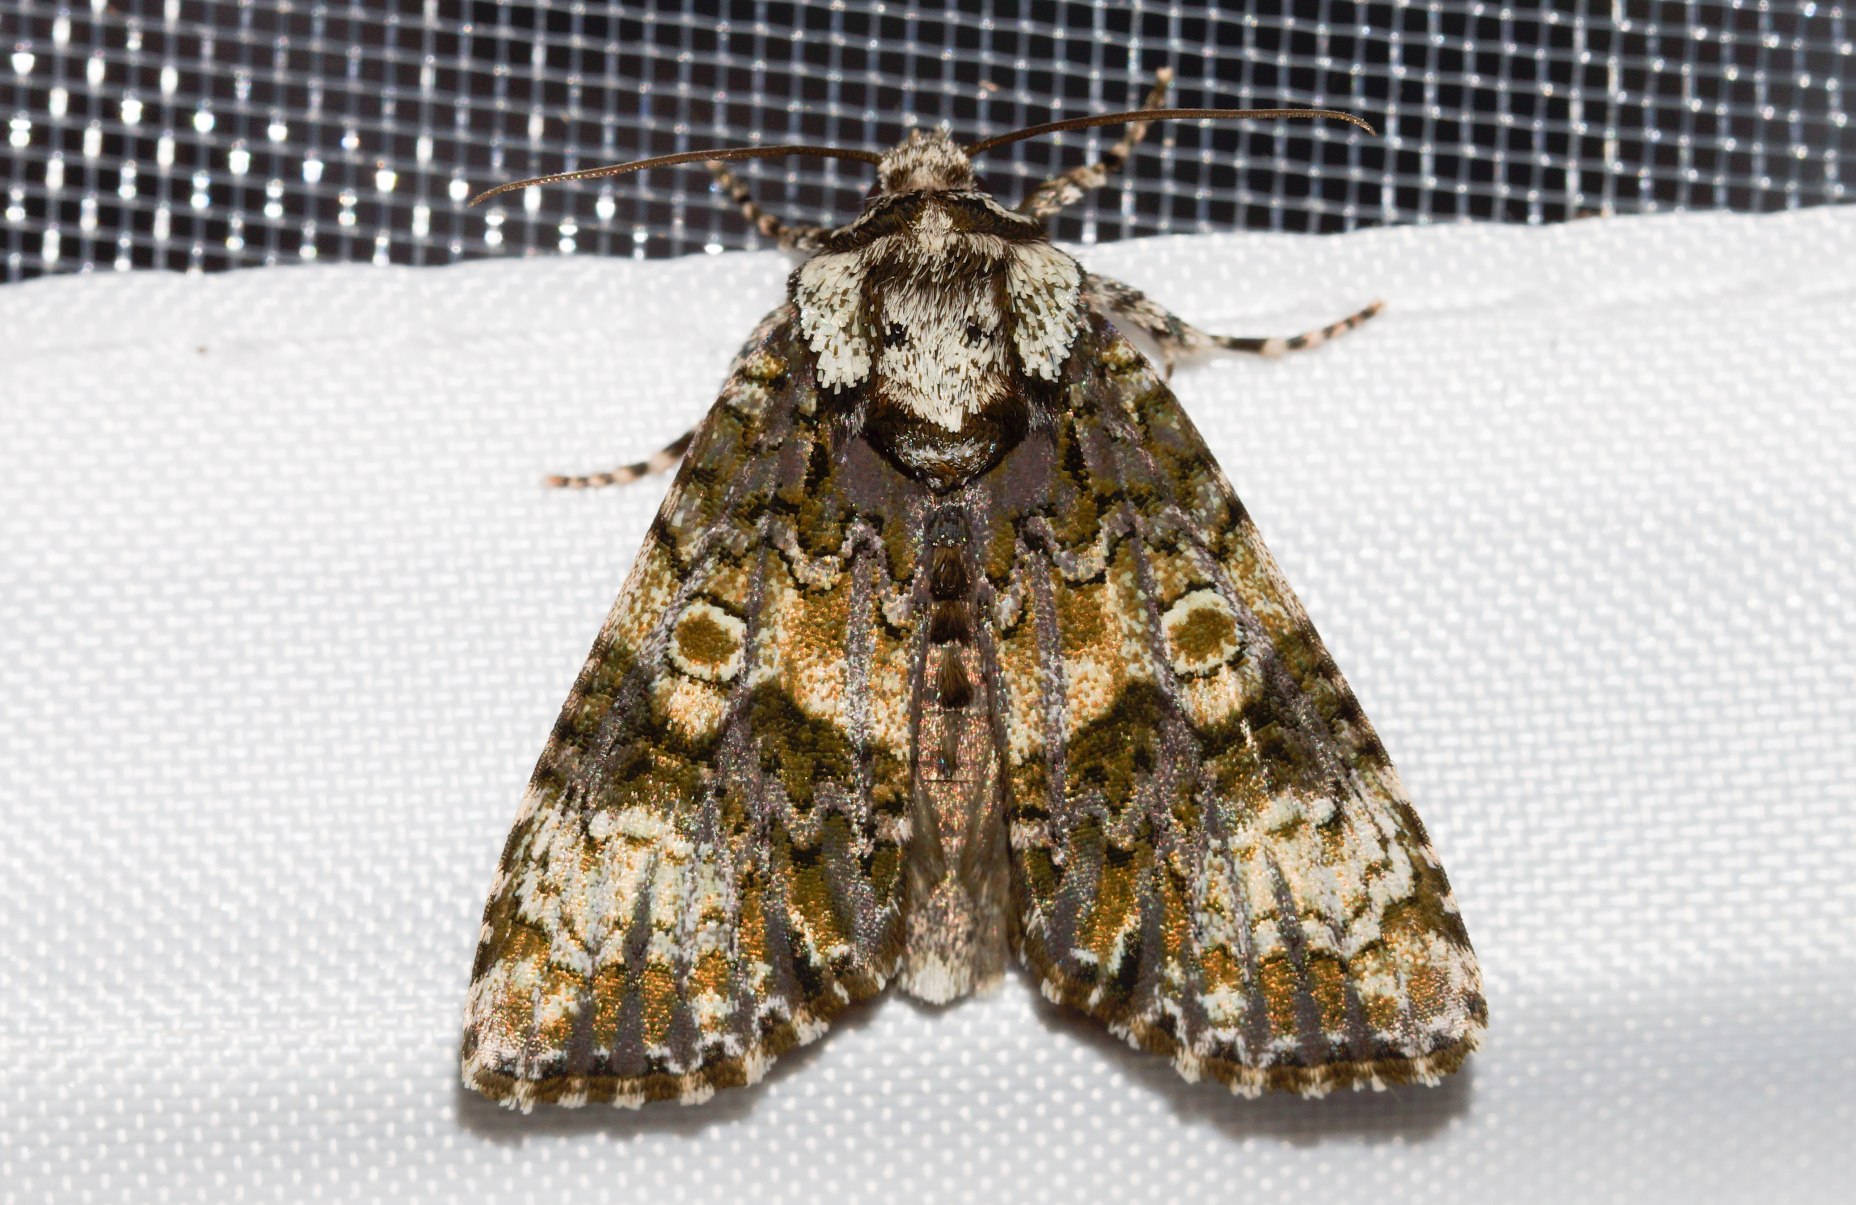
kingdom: Animalia
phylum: Arthropoda
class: Insecta
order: Lepidoptera
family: Noctuidae
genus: Craniophora
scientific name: Craniophora ligustri
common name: Askeugle
